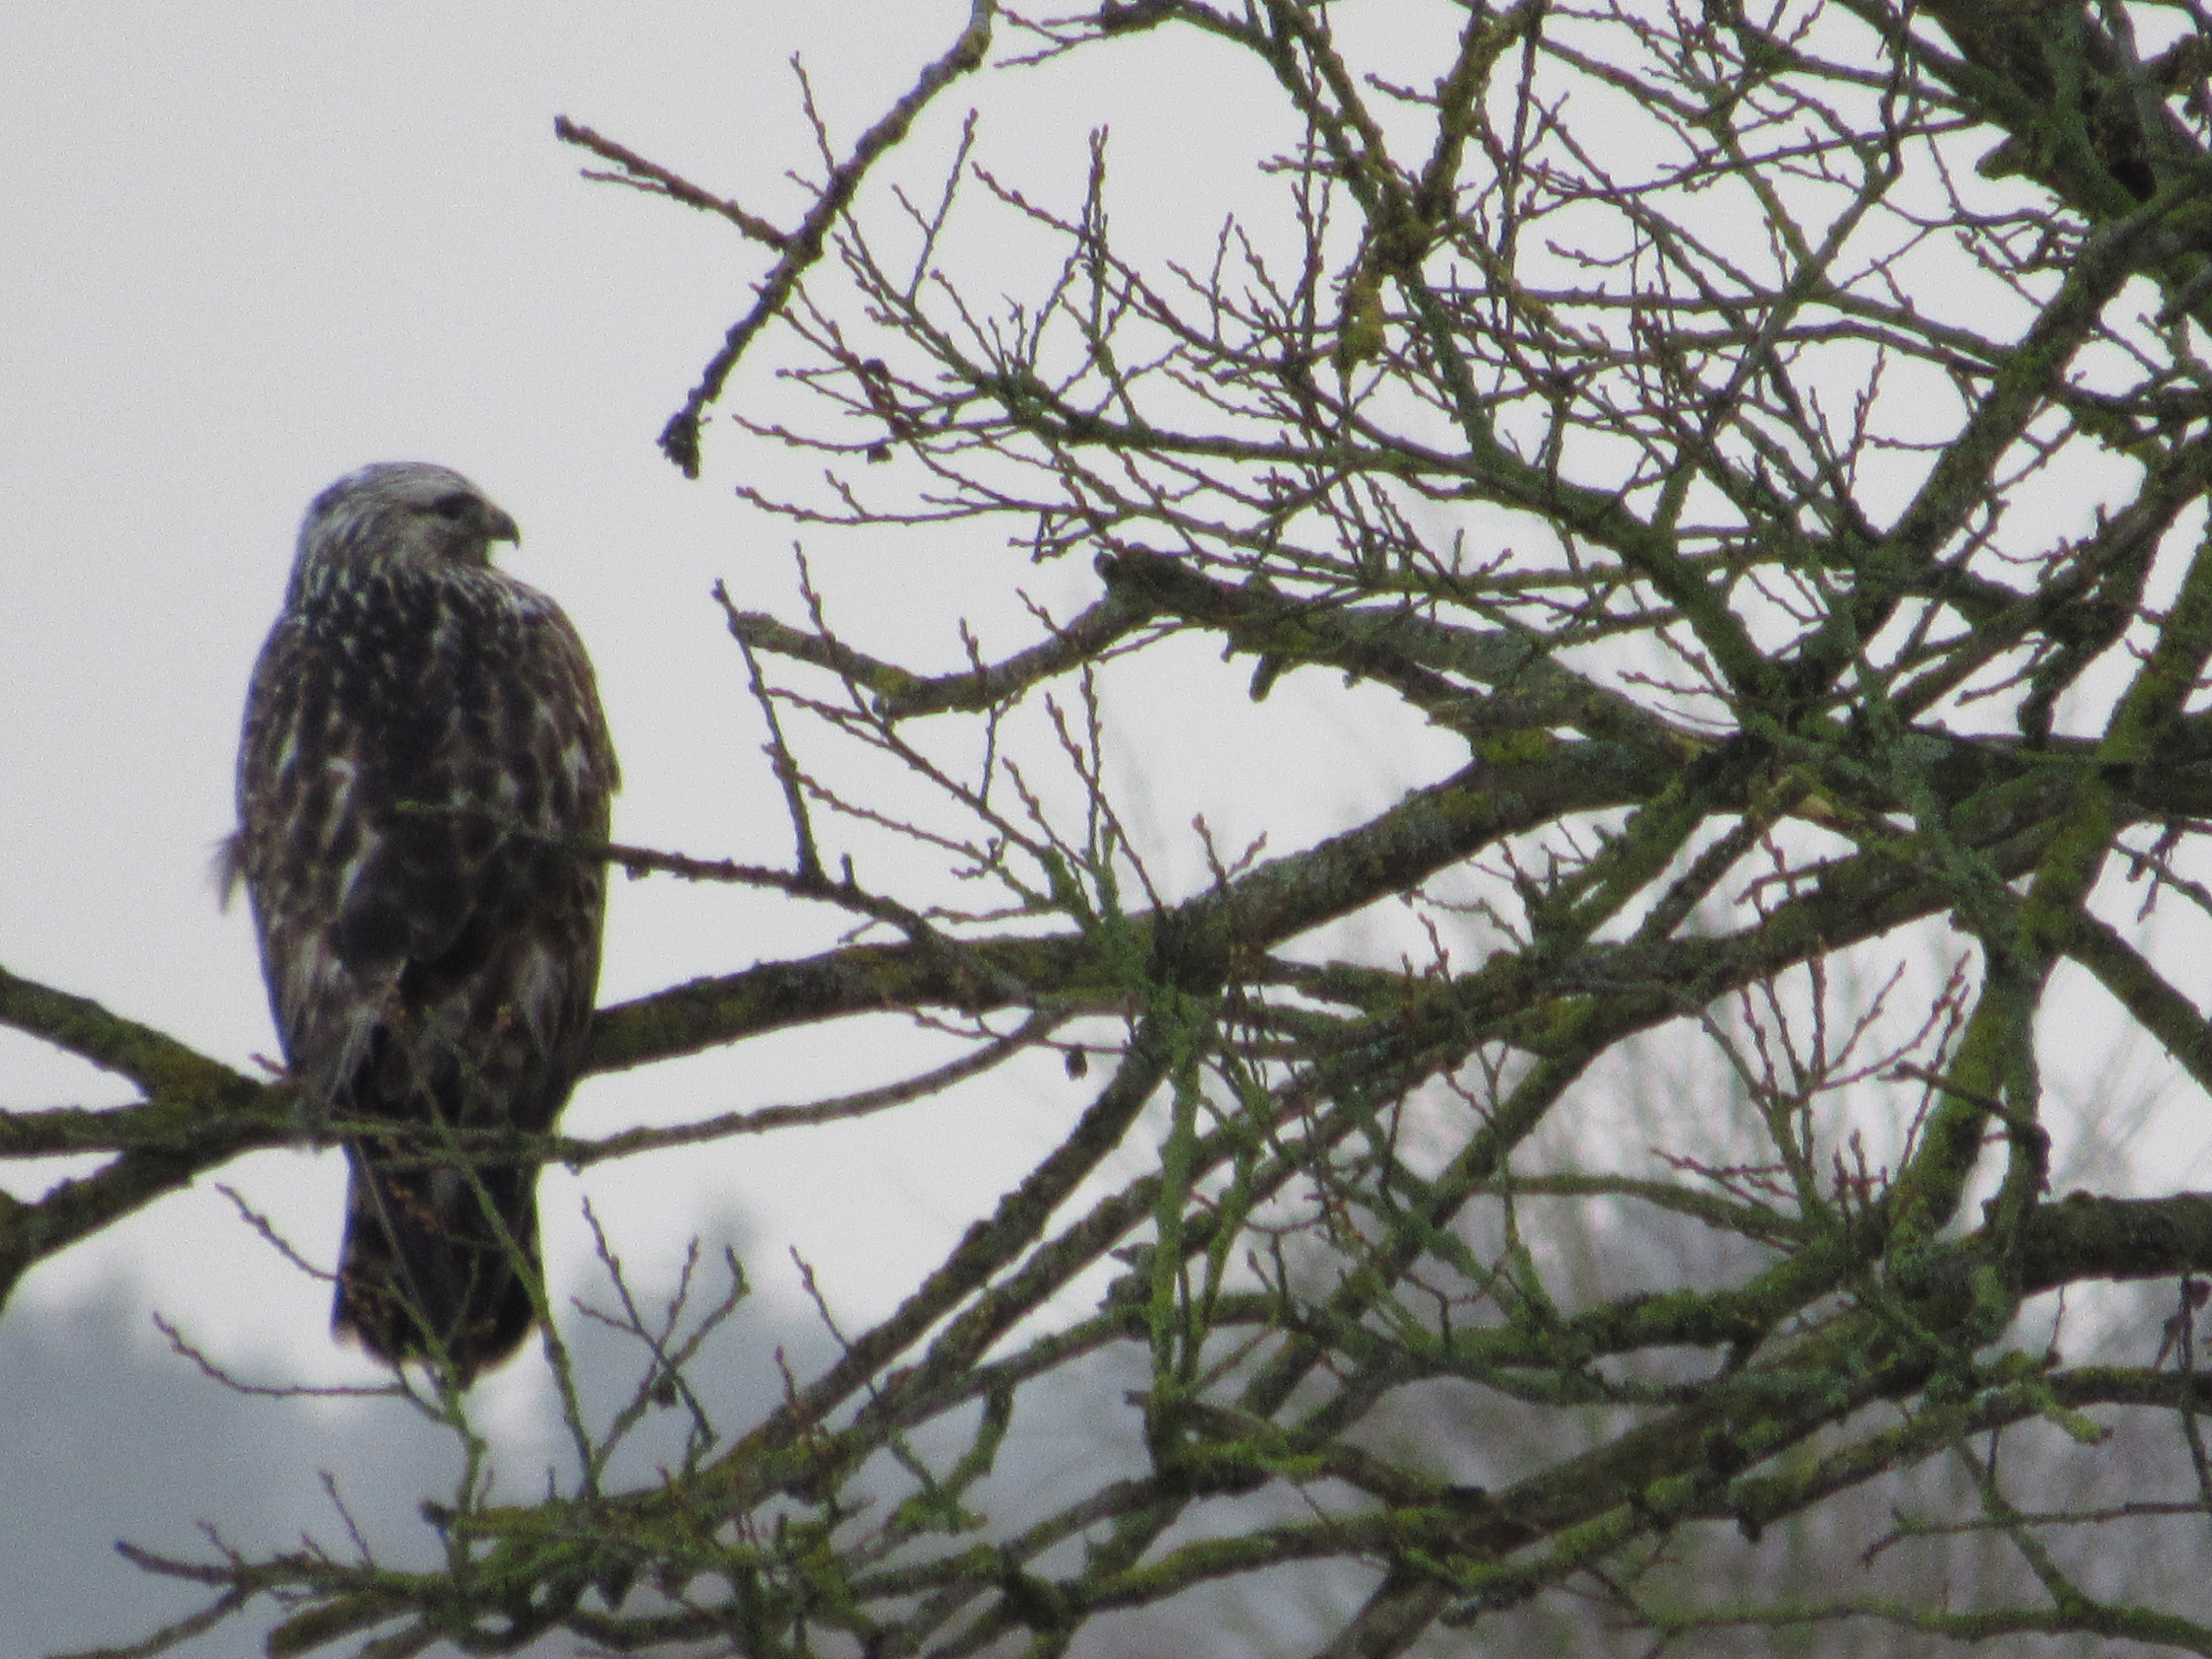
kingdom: Animalia
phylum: Chordata
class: Aves
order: Accipitriformes
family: Accipitridae
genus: Buteo
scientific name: Buteo lagopus
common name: Fjeldvåge
